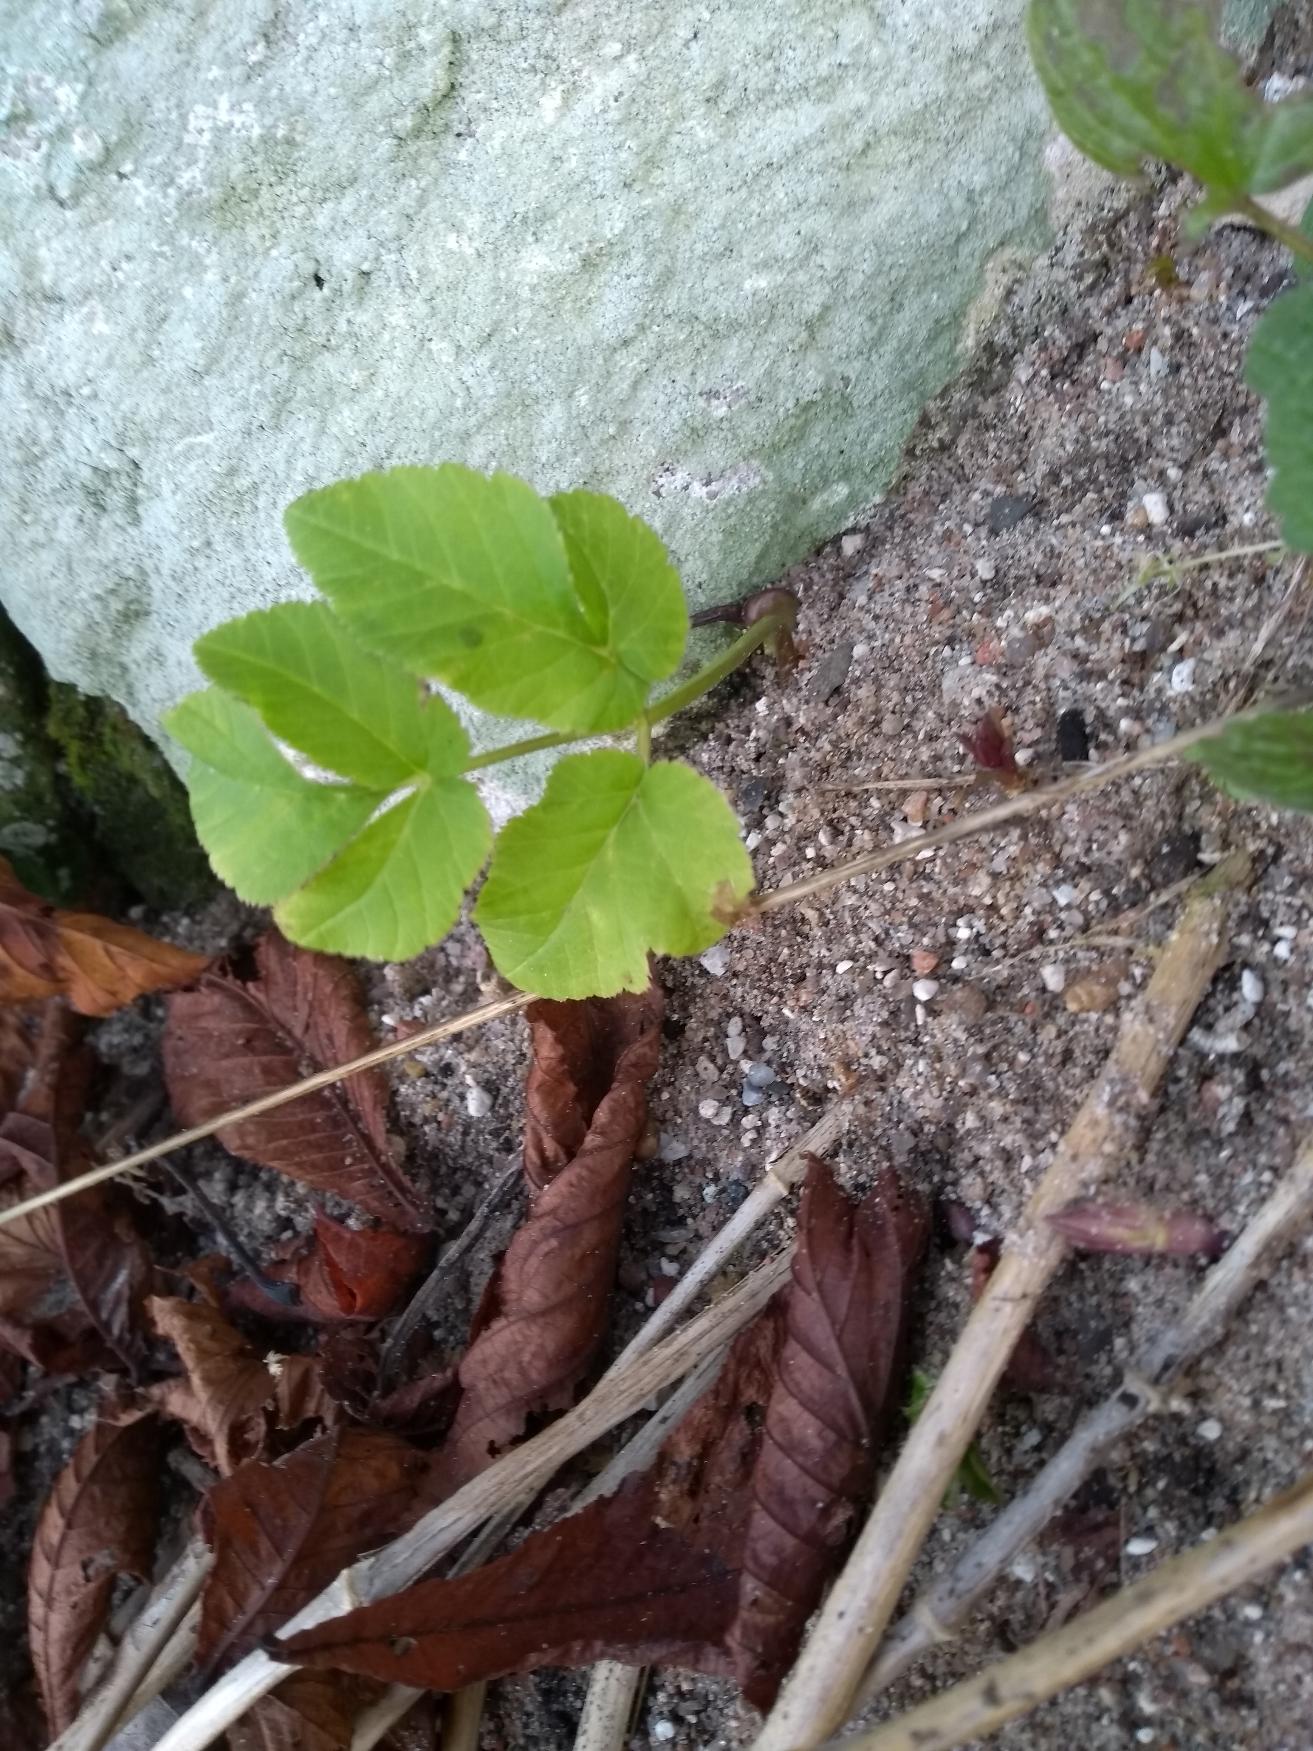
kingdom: Plantae
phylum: Tracheophyta
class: Magnoliopsida
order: Apiales
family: Apiaceae
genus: Aegopodium
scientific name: Aegopodium podagraria
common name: Skvalderkål
